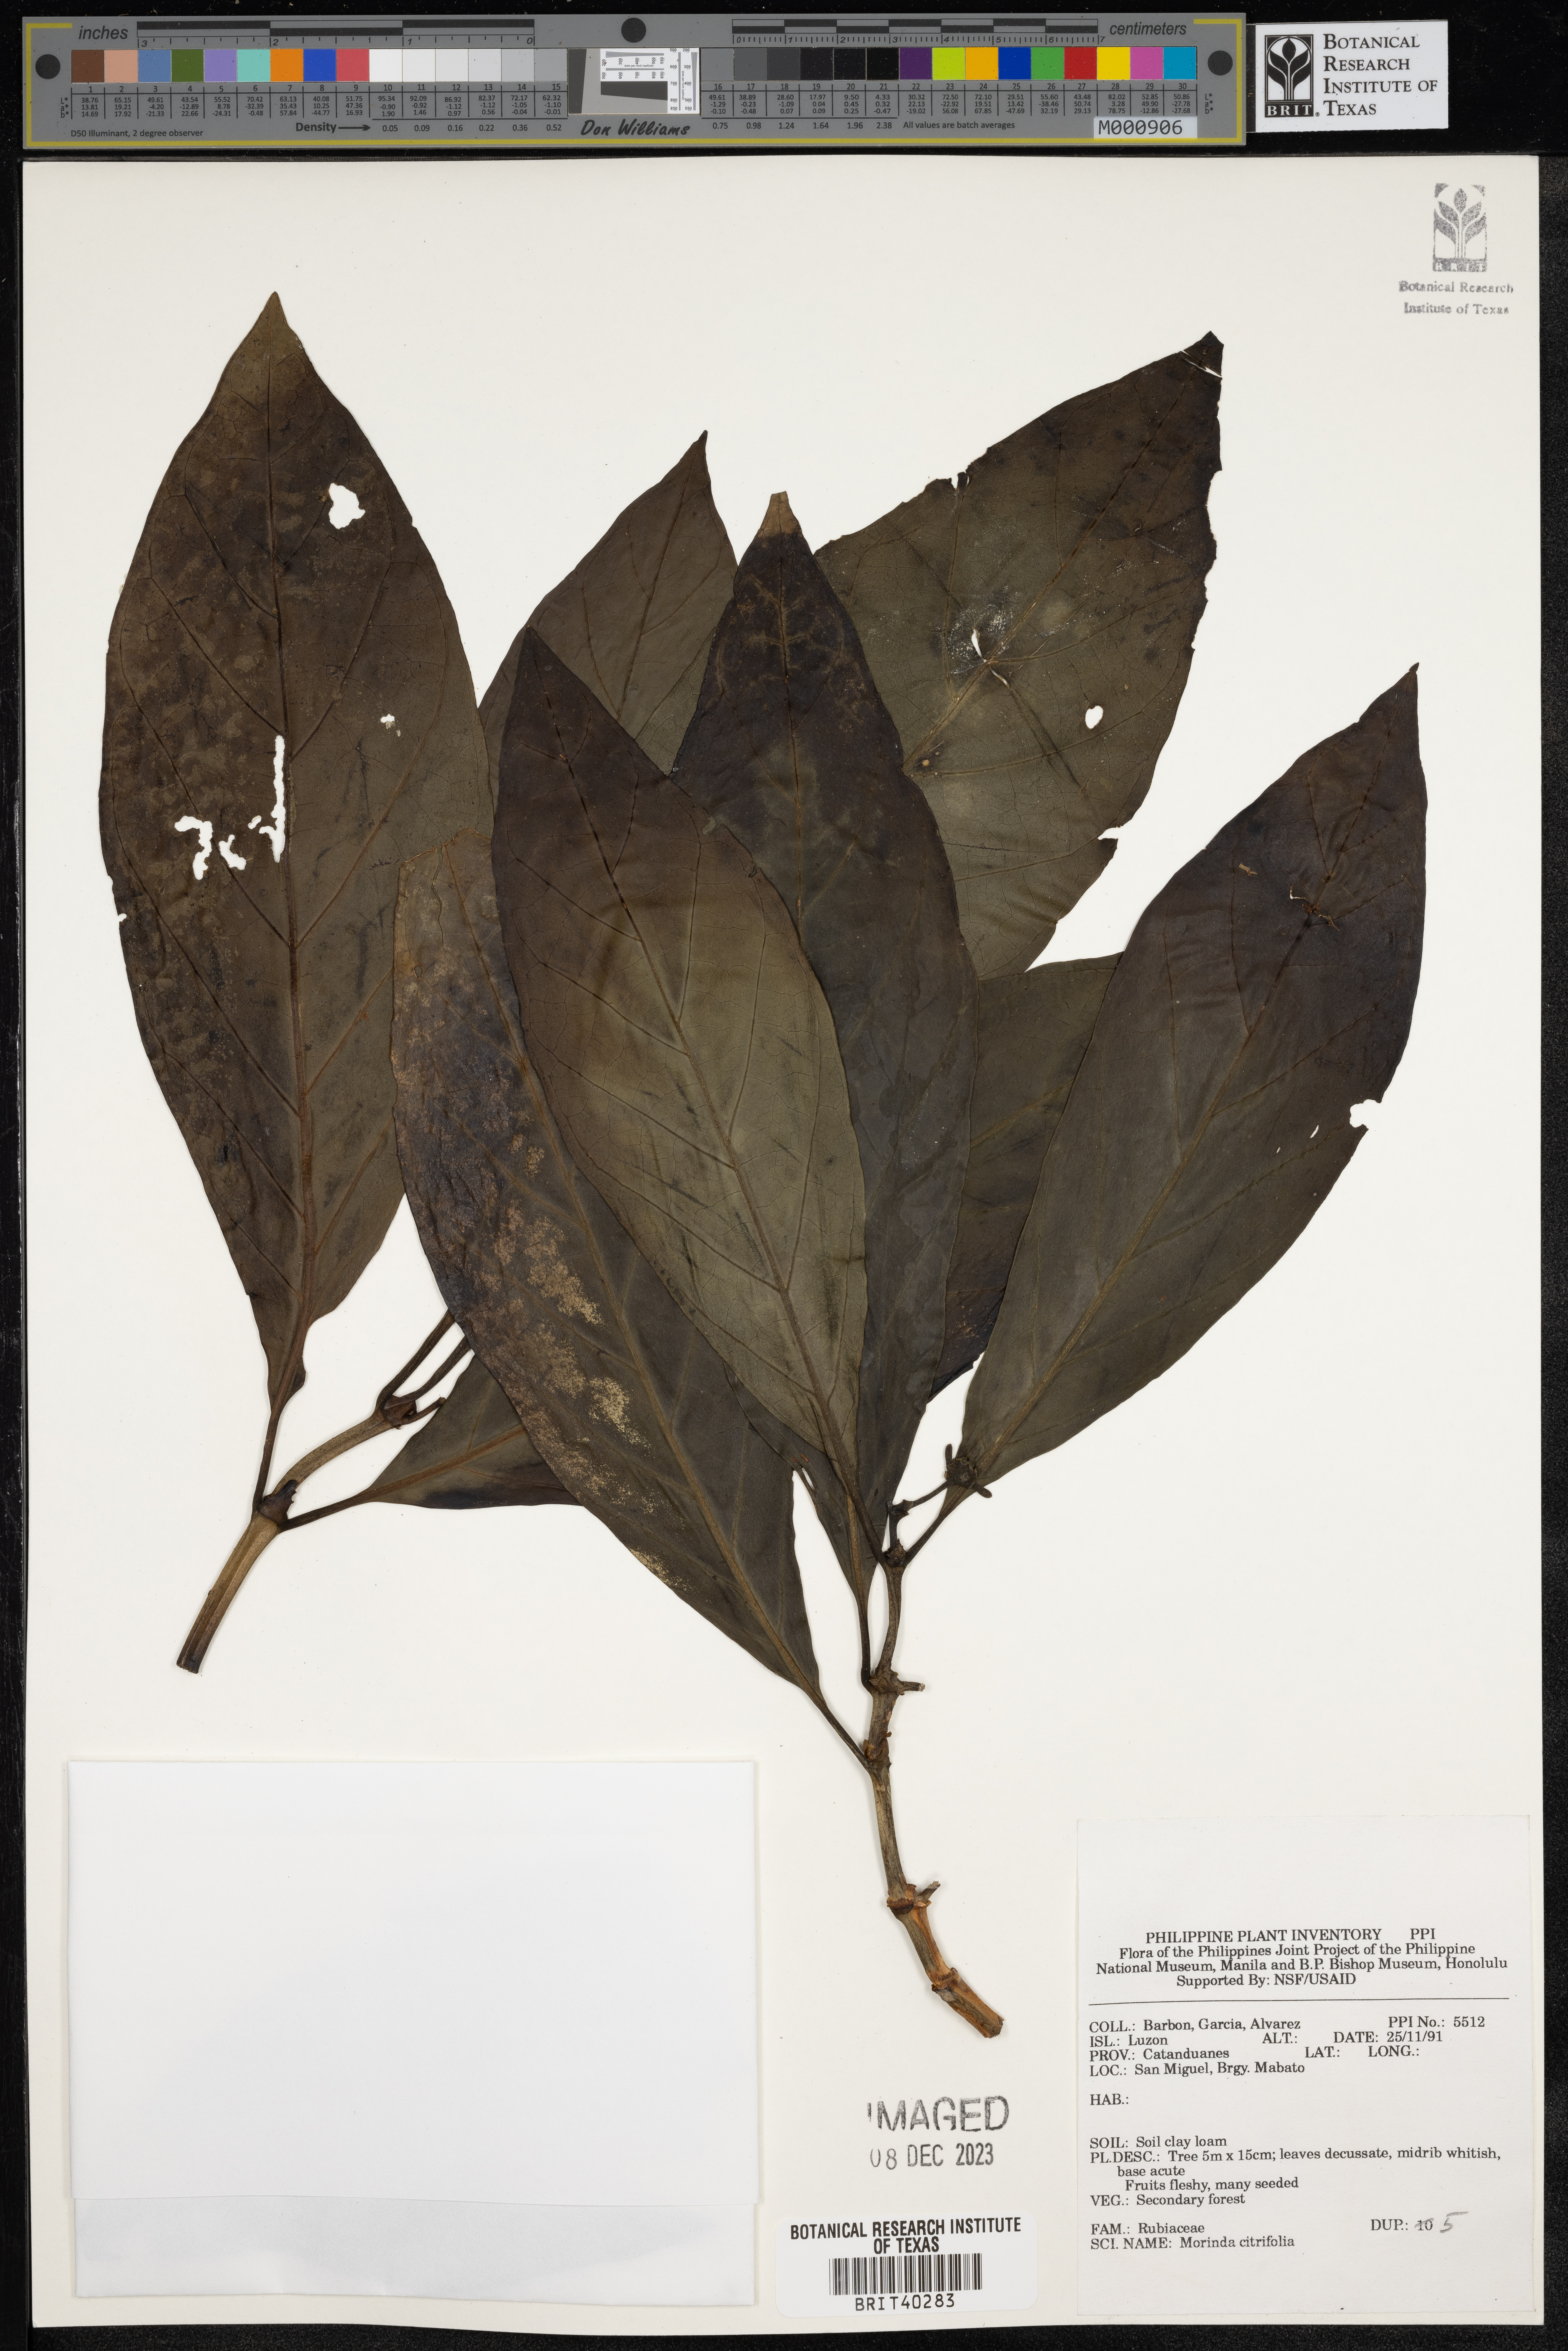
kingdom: Plantae
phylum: Tracheophyta
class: Magnoliopsida
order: Gentianales
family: Rubiaceae
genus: Morinda
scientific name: Morinda citrifolia
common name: Indian-mulberry
